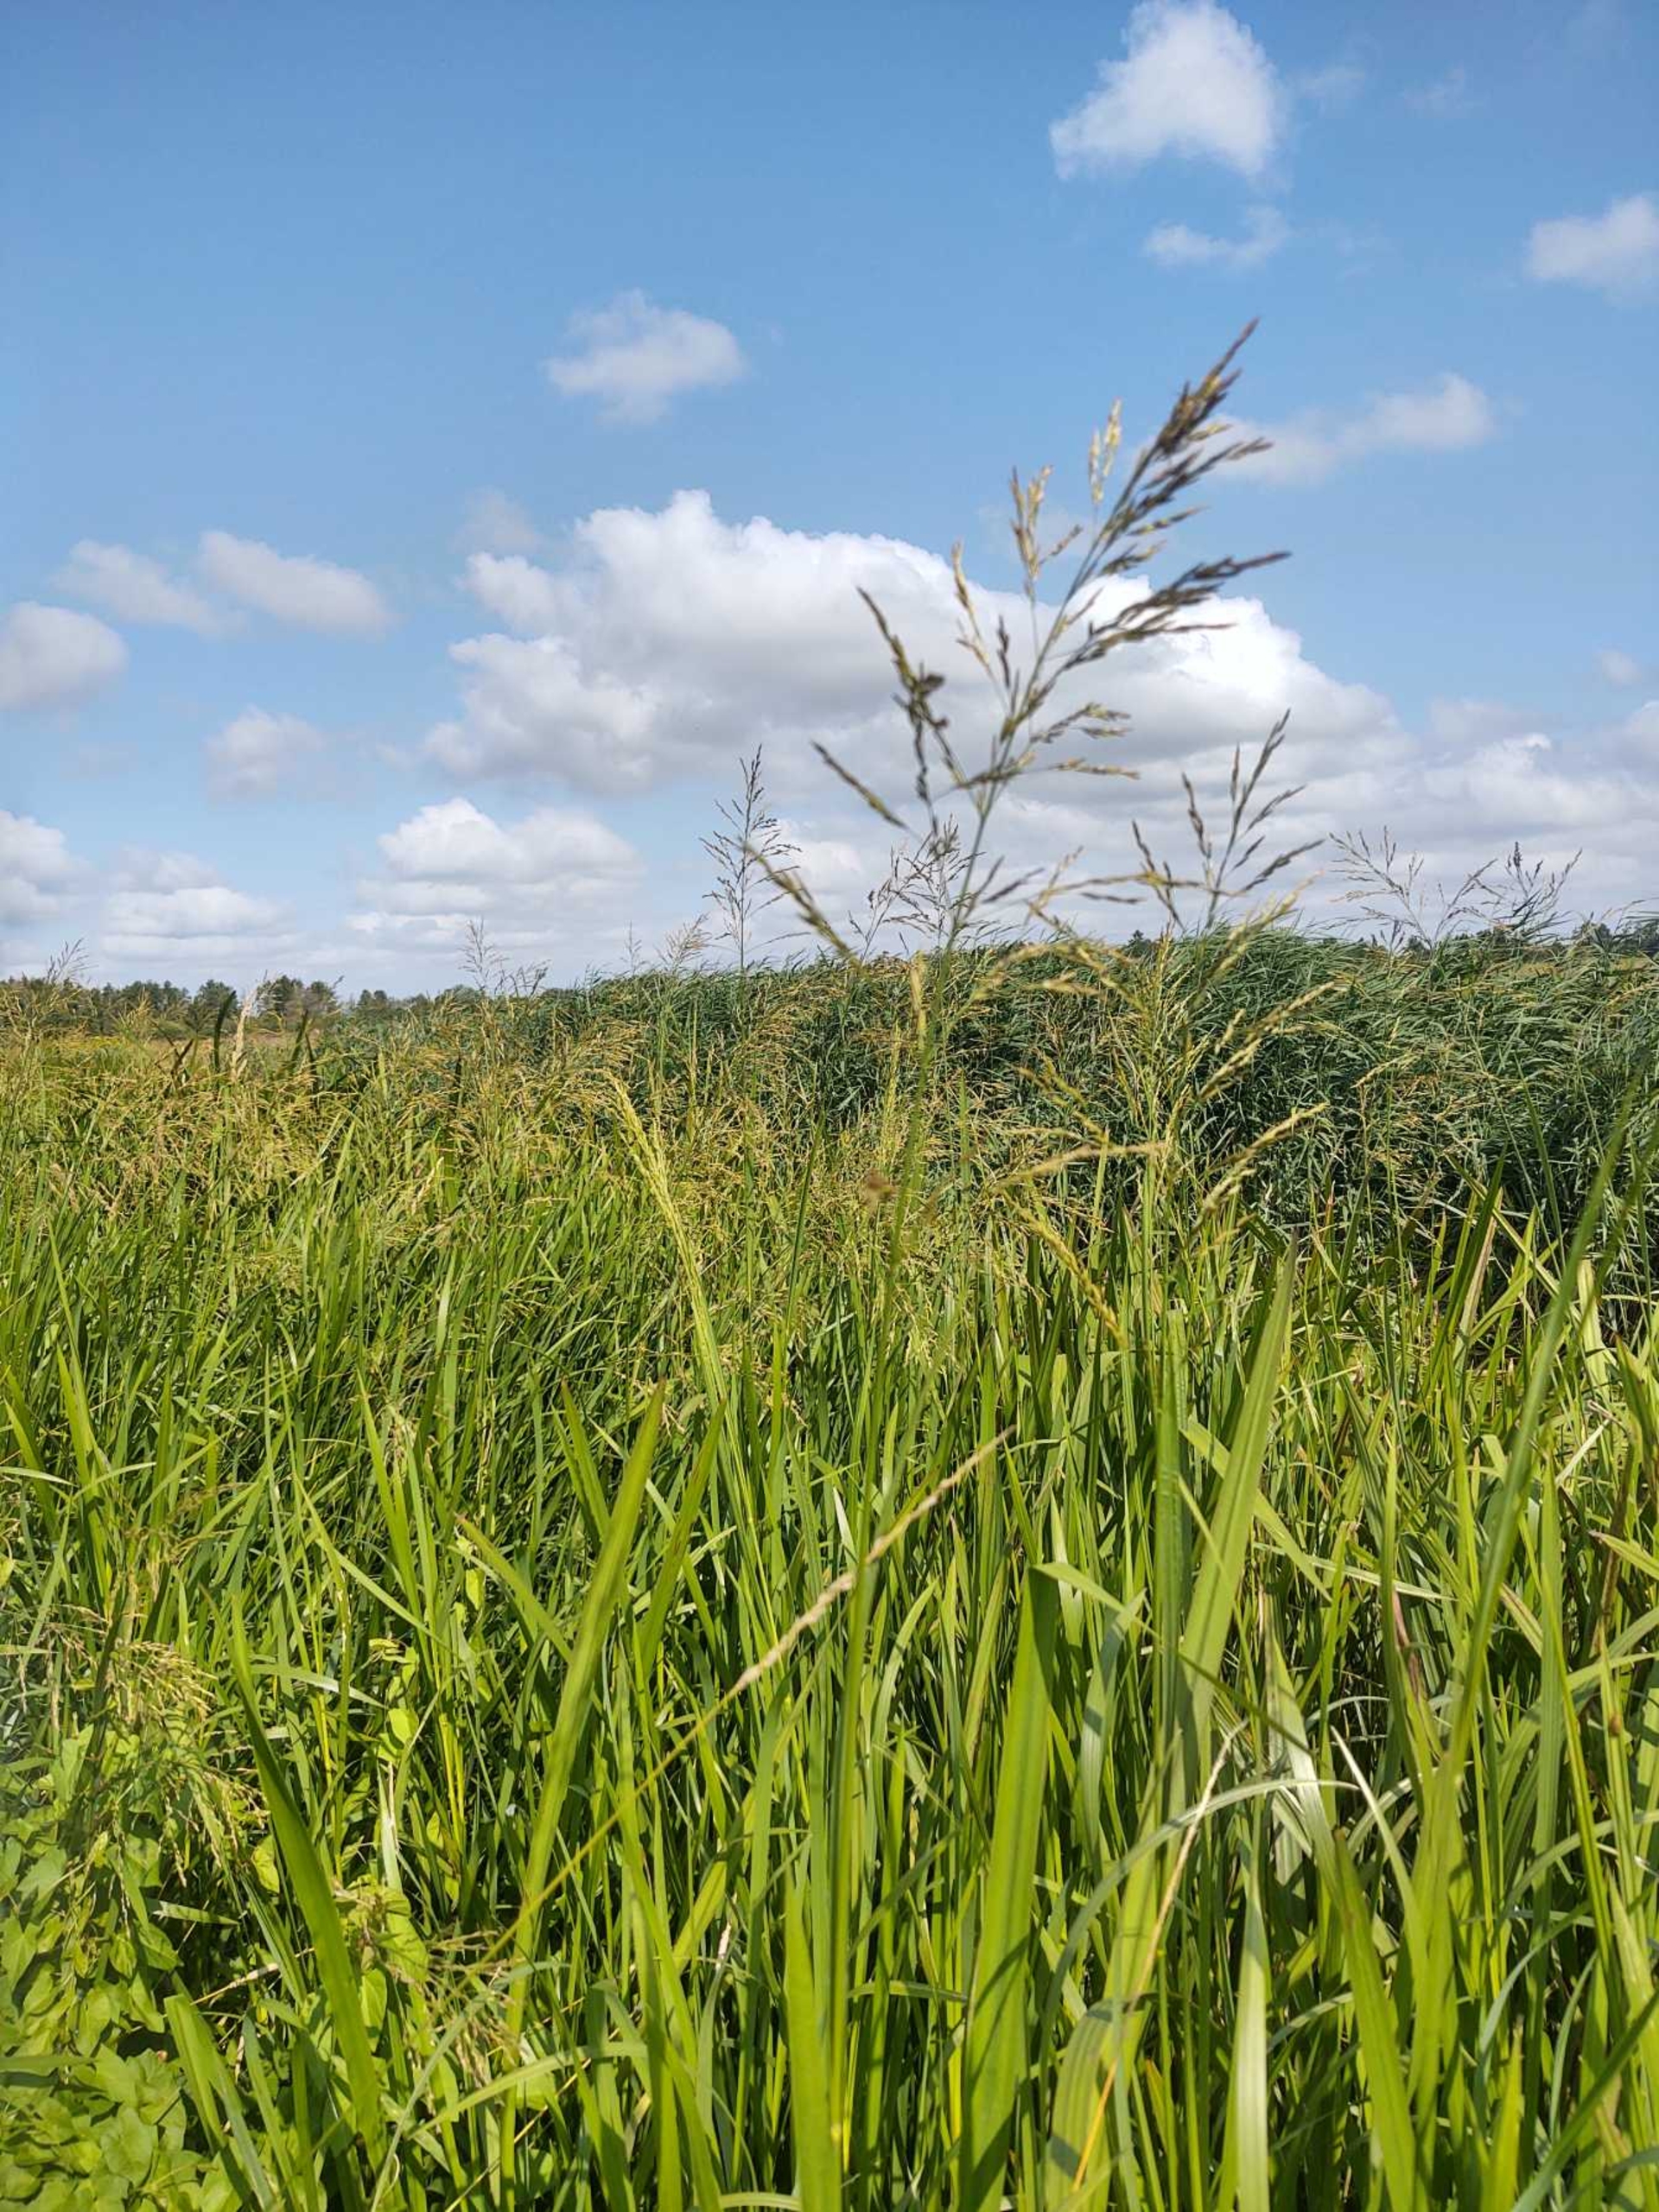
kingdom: Plantae
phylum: Tracheophyta
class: Liliopsida
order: Poales
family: Poaceae
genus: Glyceria
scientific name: Glyceria maxima
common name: Høj sødgræs
